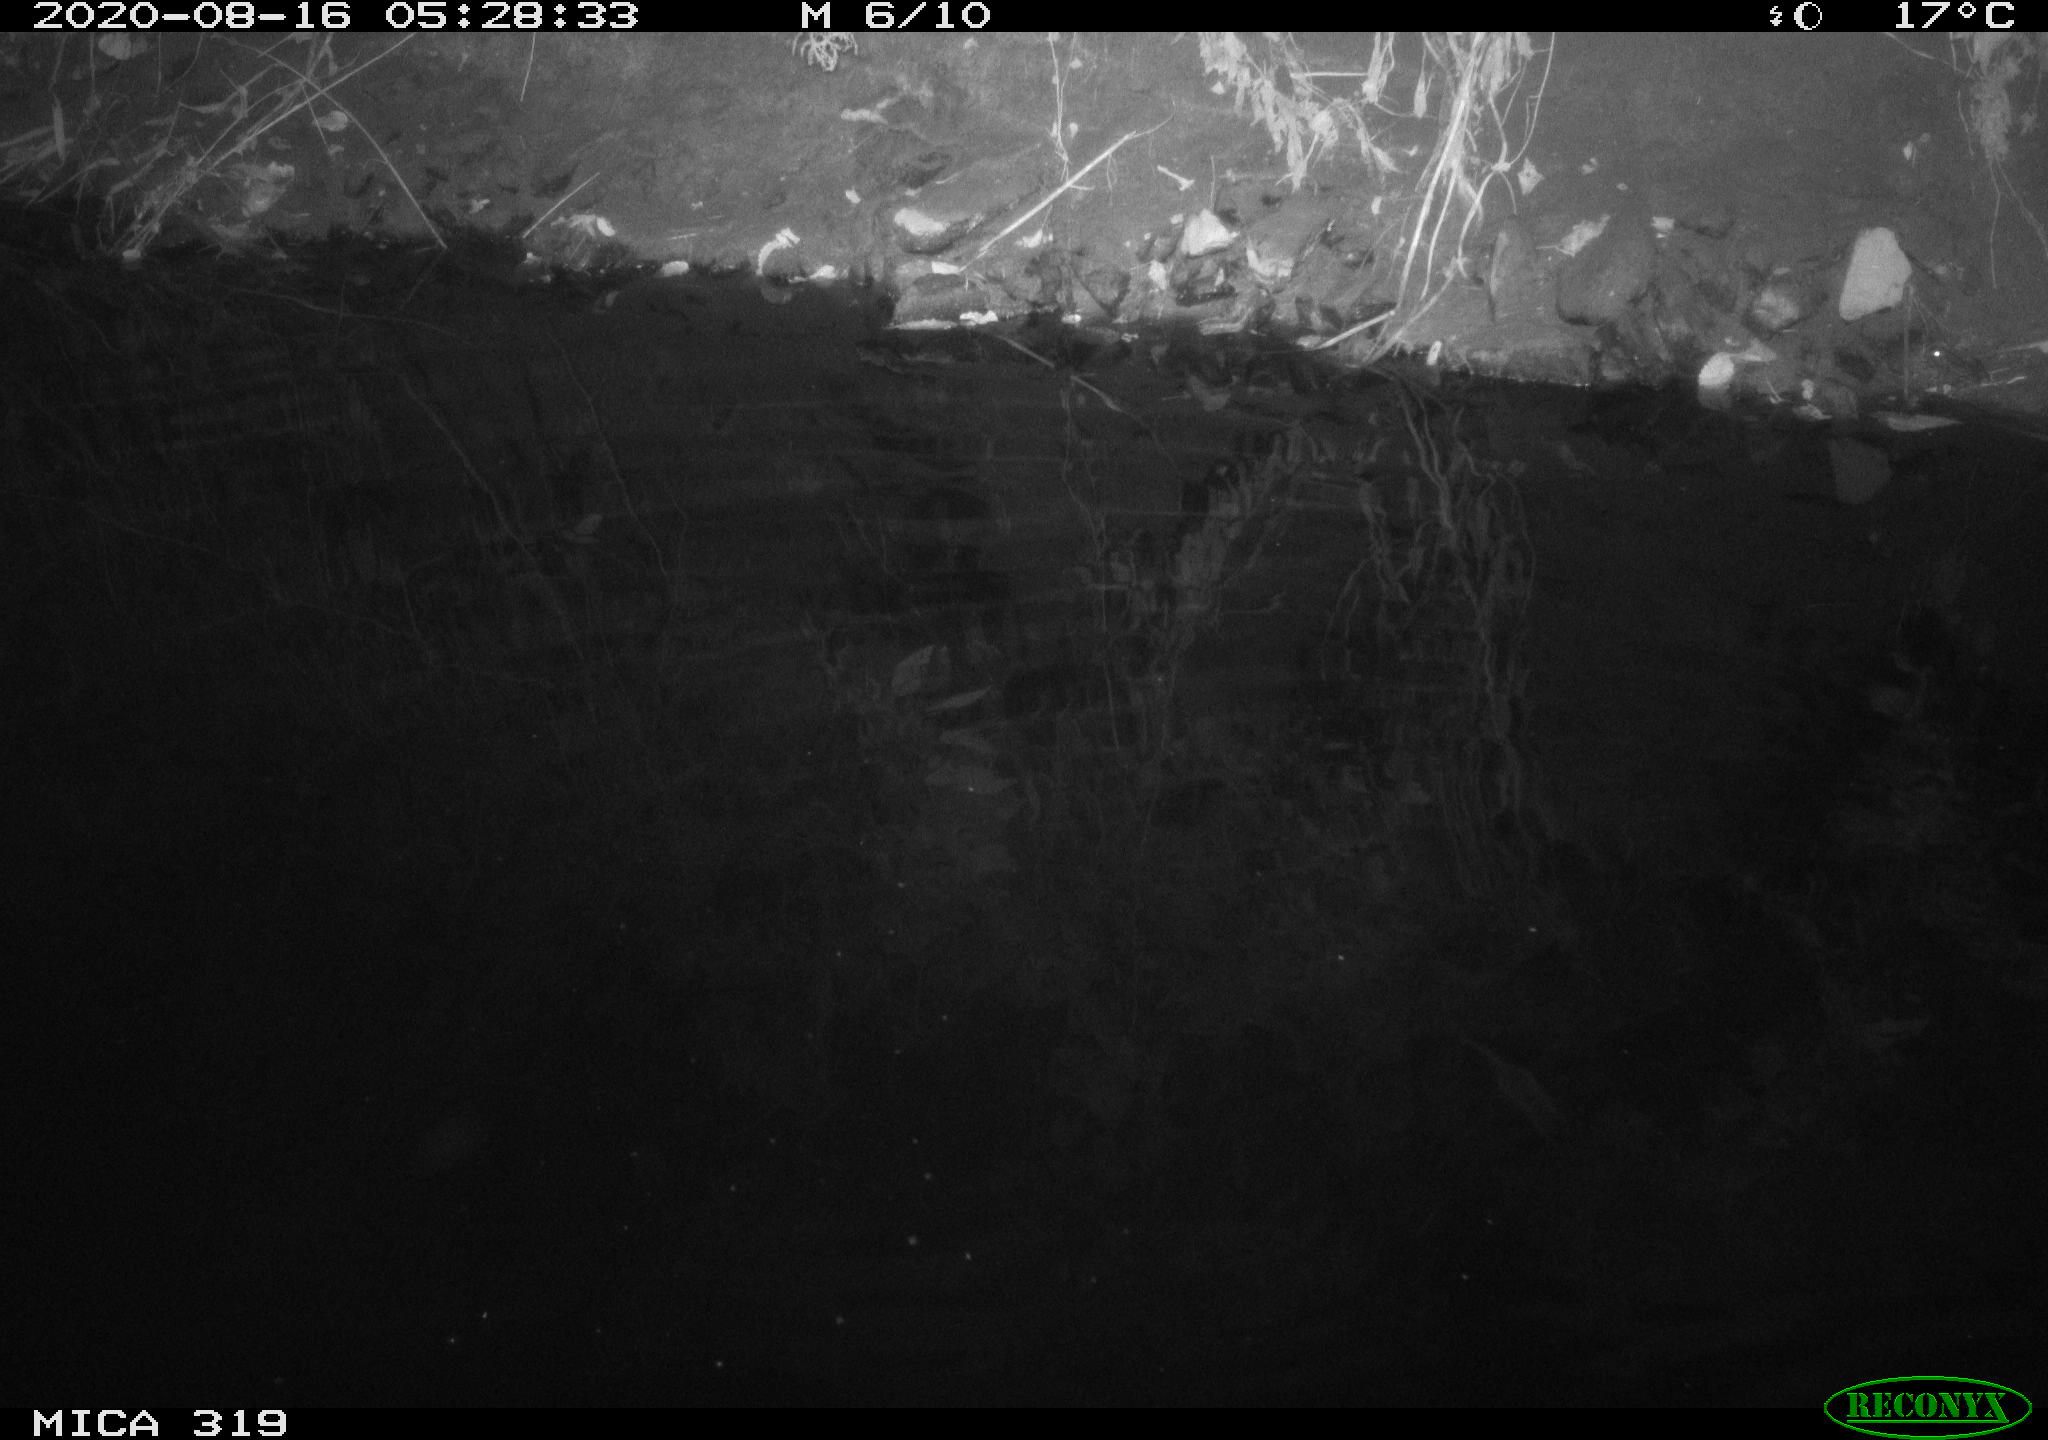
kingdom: Animalia
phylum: Chordata
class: Aves
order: Anseriformes
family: Anatidae
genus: Anas
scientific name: Anas platyrhynchos
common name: Mallard
